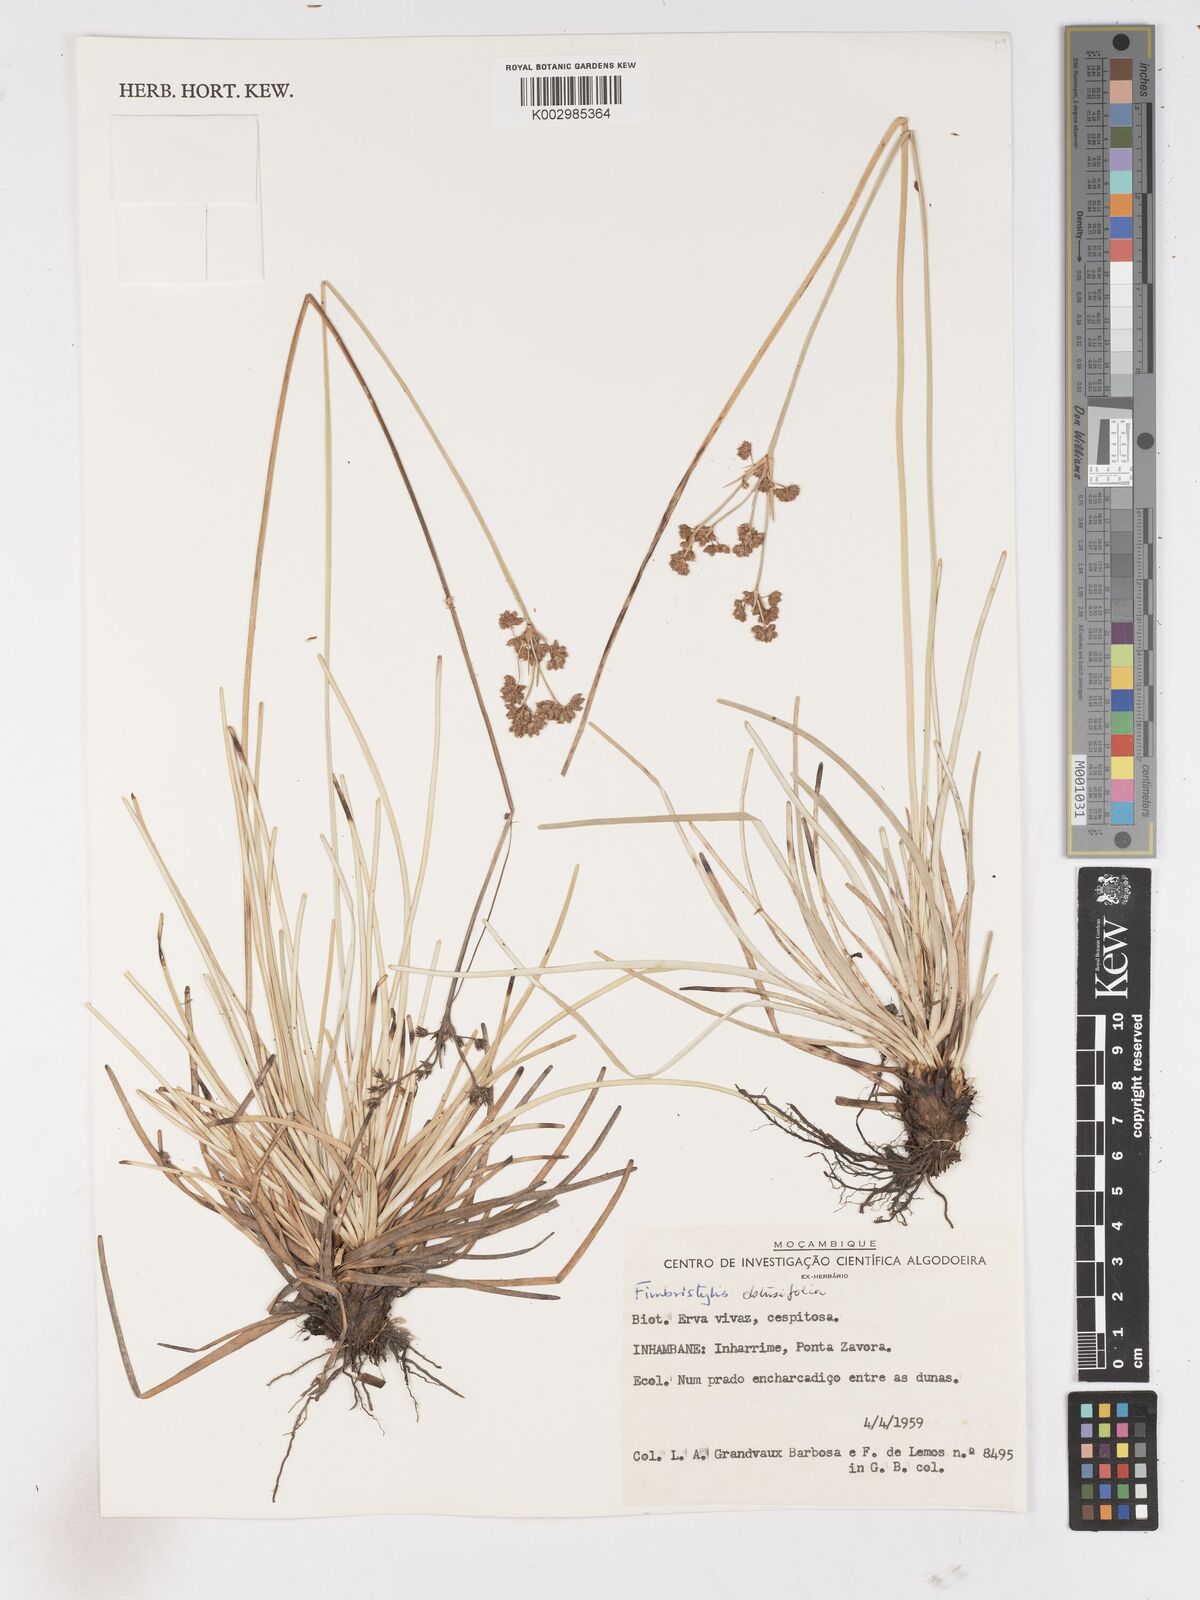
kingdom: Plantae
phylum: Tracheophyta
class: Liliopsida
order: Poales
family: Cyperaceae
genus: Fimbristylis
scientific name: Fimbristylis cymosa
